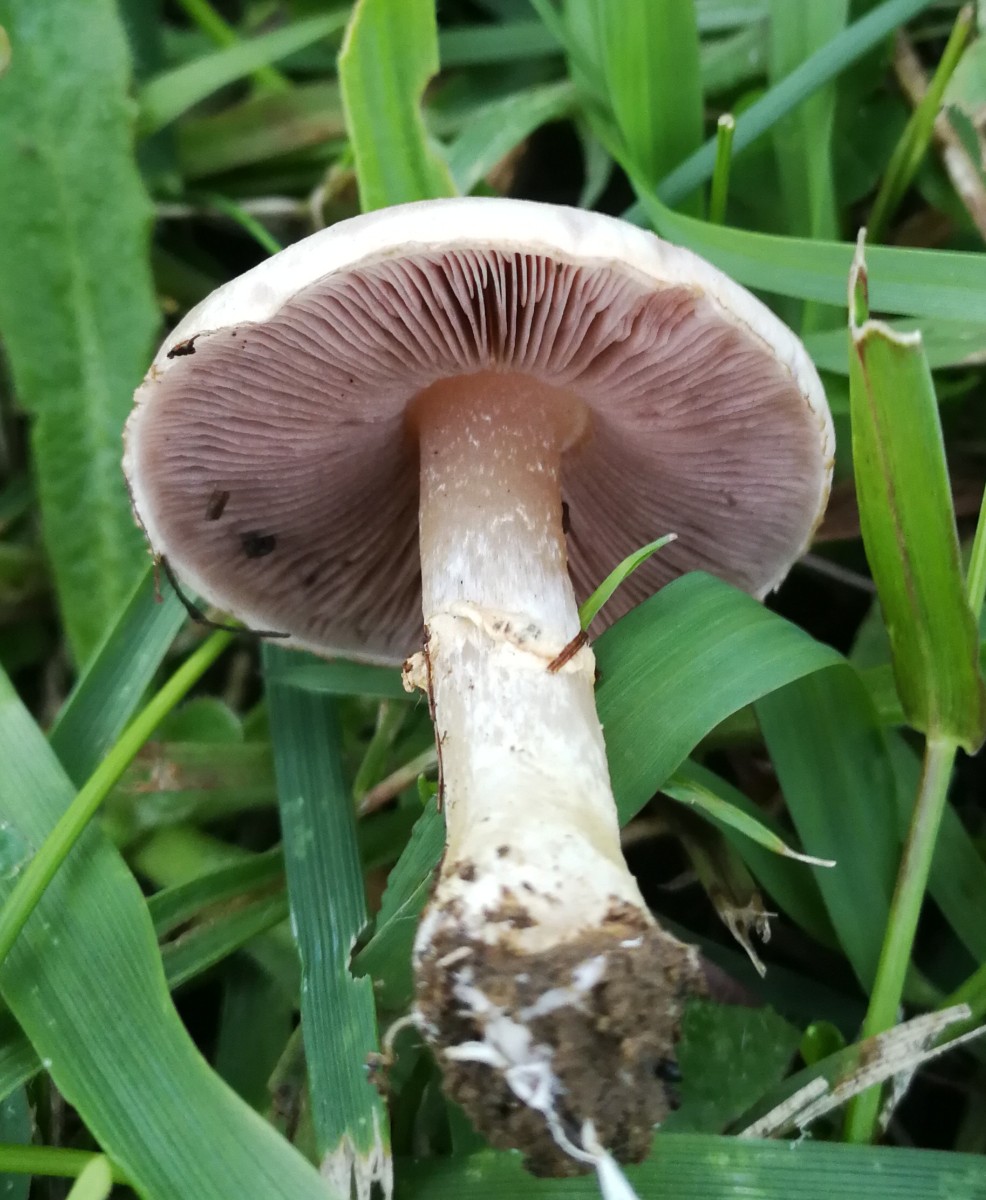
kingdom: Fungi
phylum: Basidiomycota
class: Agaricomycetes
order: Agaricales
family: Agaricaceae
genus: Agaricus
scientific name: Agaricus
